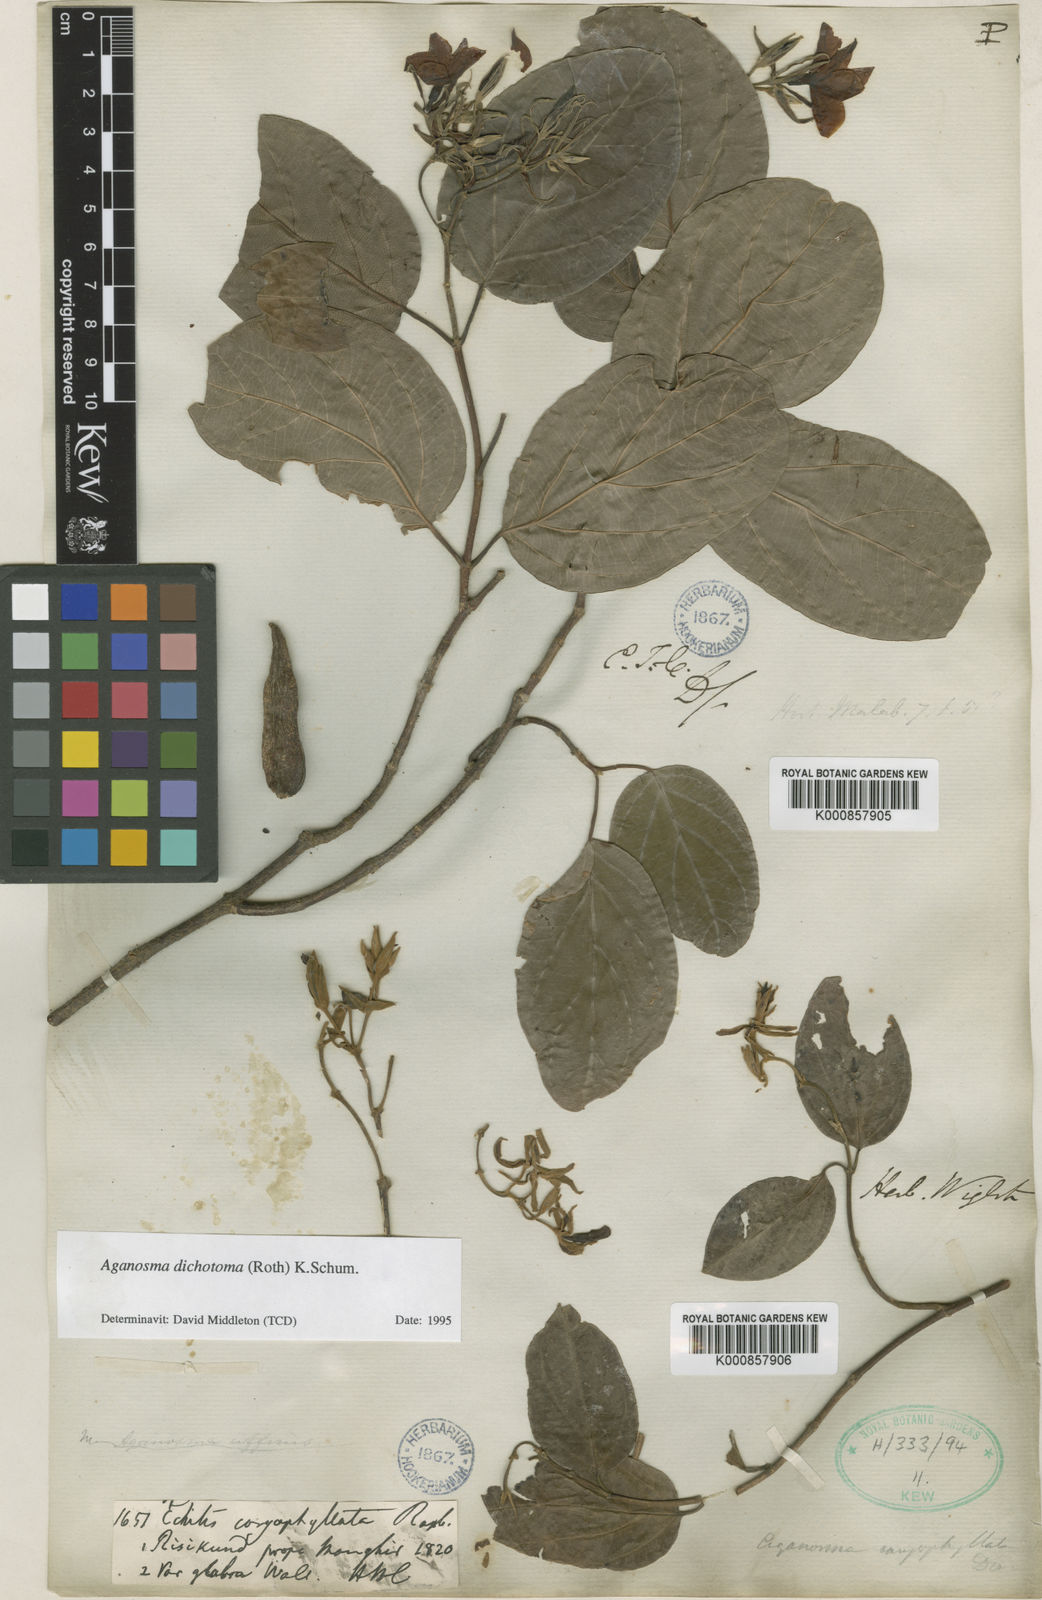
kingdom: Plantae
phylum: Tracheophyta
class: Magnoliopsida
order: Gentianales
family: Apocynaceae
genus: Aganosma
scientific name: Aganosma heynei
